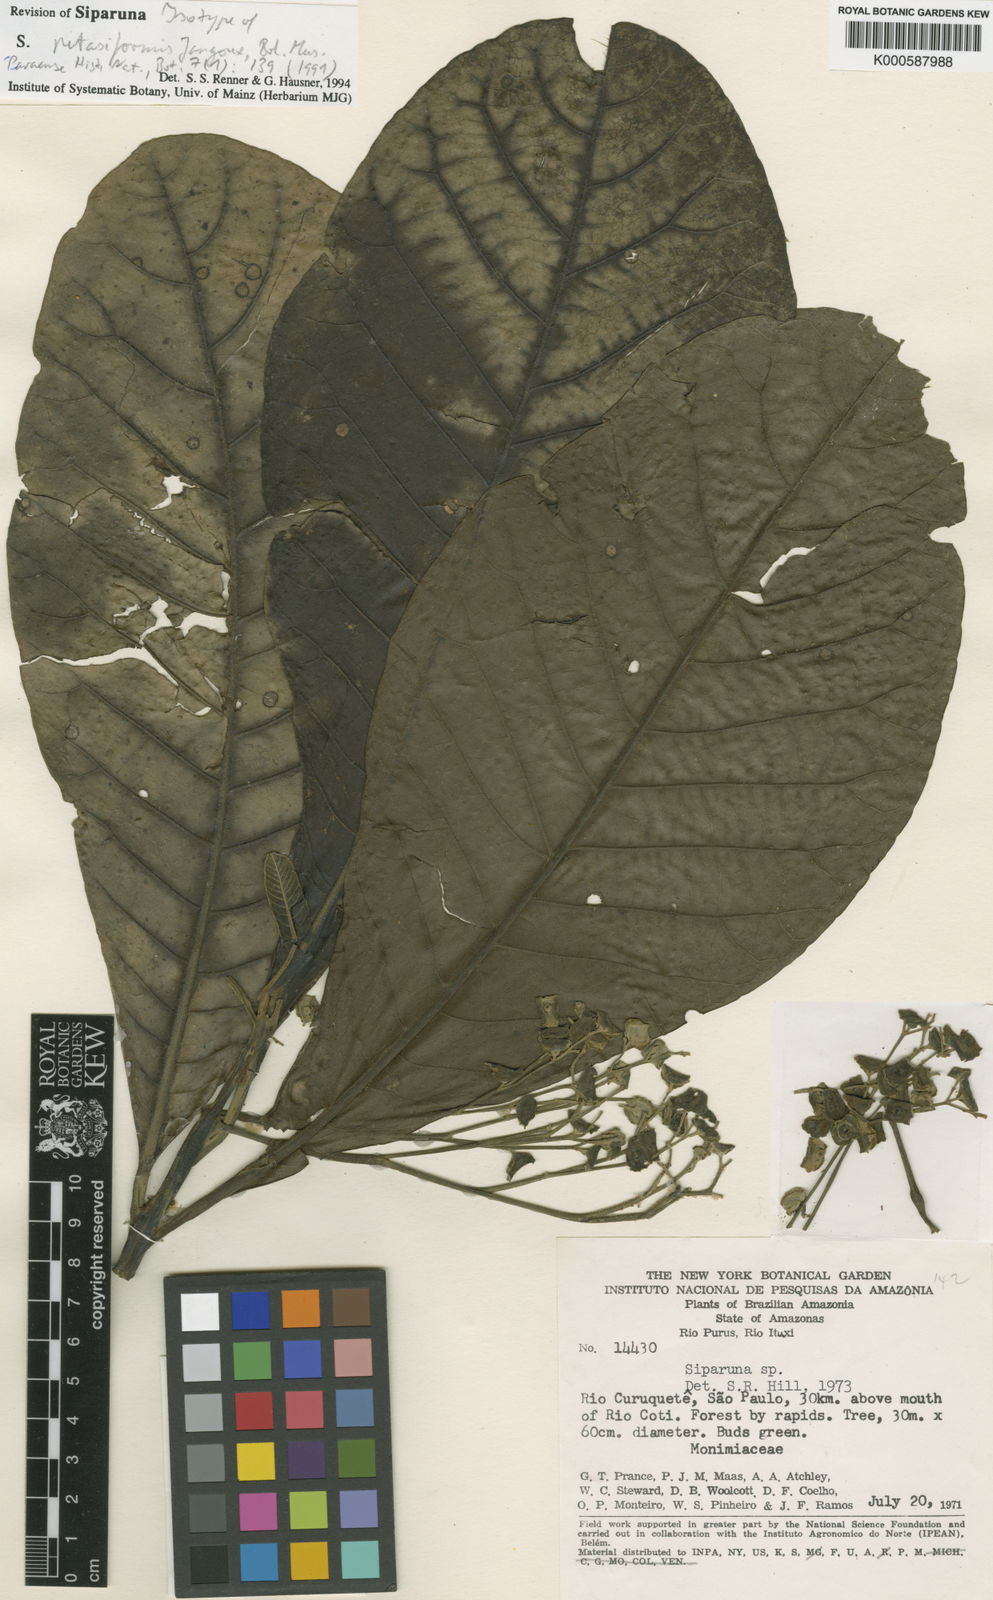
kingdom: Plantae
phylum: Tracheophyta
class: Magnoliopsida
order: Laurales
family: Siparunaceae
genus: Siparuna
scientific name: Siparuna petasiformis
